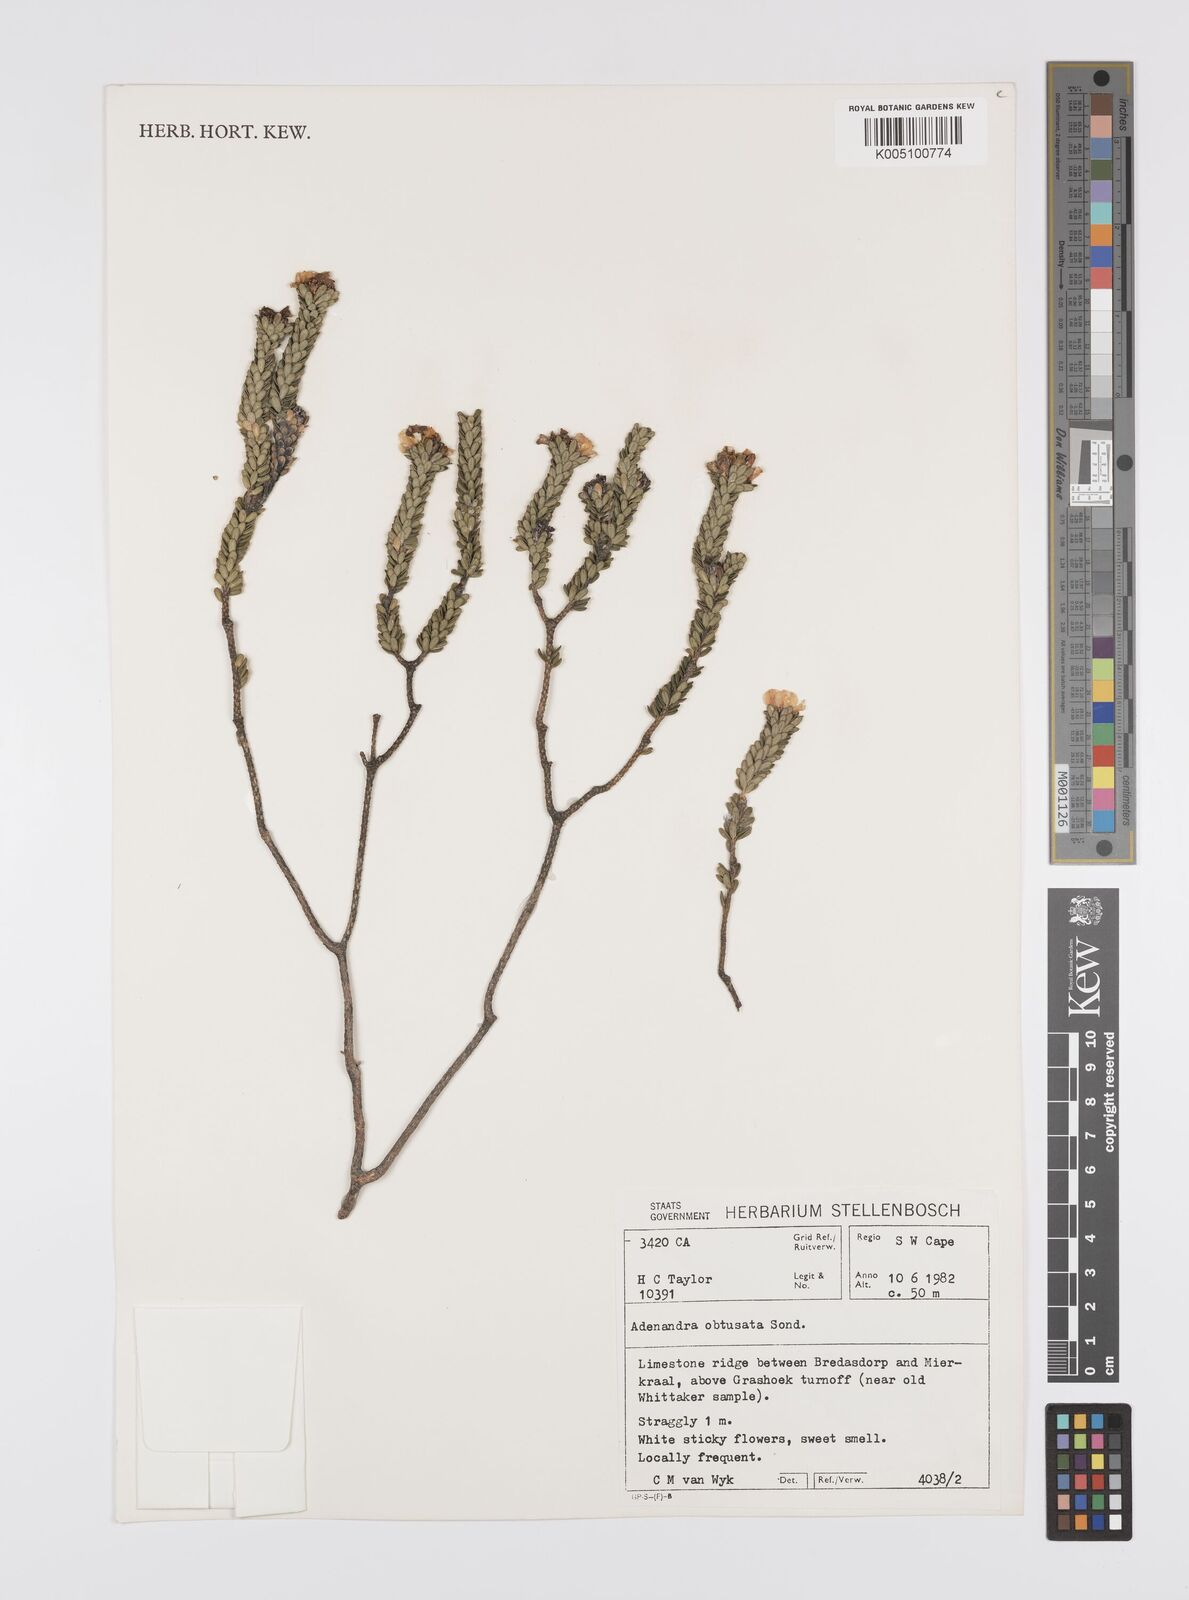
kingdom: Plantae
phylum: Tracheophyta
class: Magnoliopsida
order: Sapindales
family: Rutaceae
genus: Adenandra
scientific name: Adenandra obtusata
